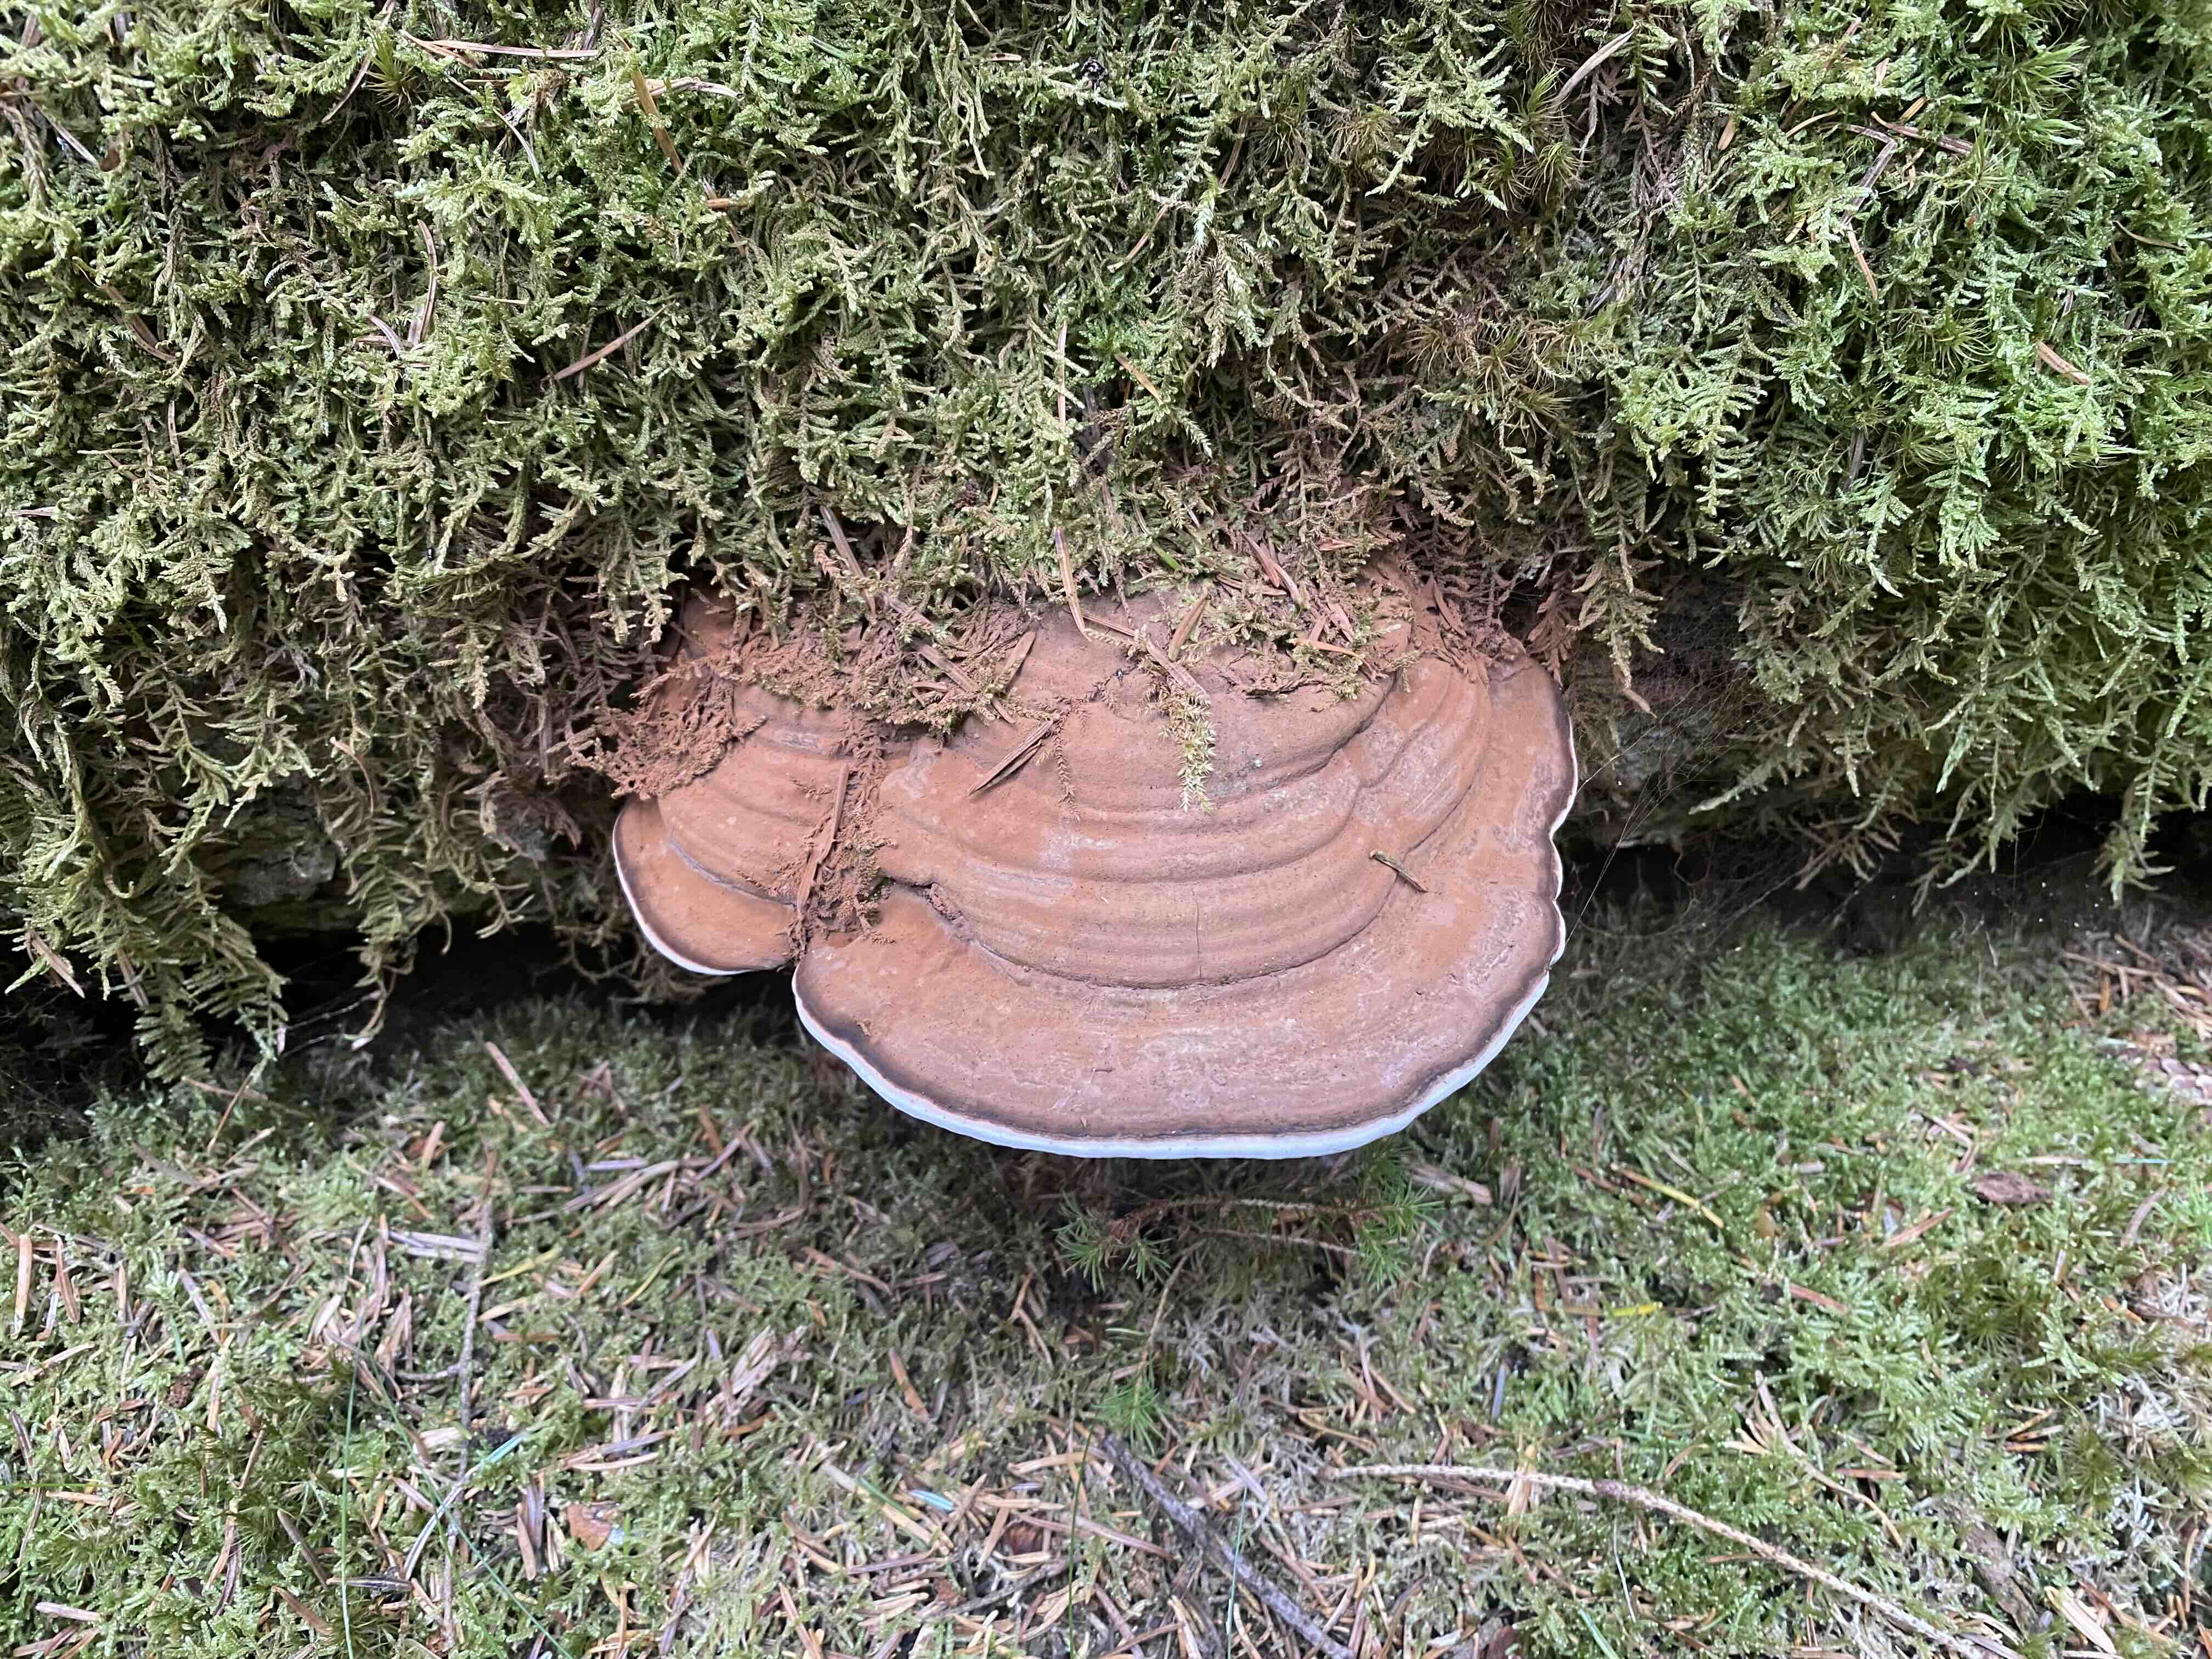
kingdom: Fungi
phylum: Basidiomycota
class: Agaricomycetes
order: Polyporales
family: Polyporaceae
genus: Ganoderma
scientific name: Ganoderma applanatum
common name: flad lakporesvamp
